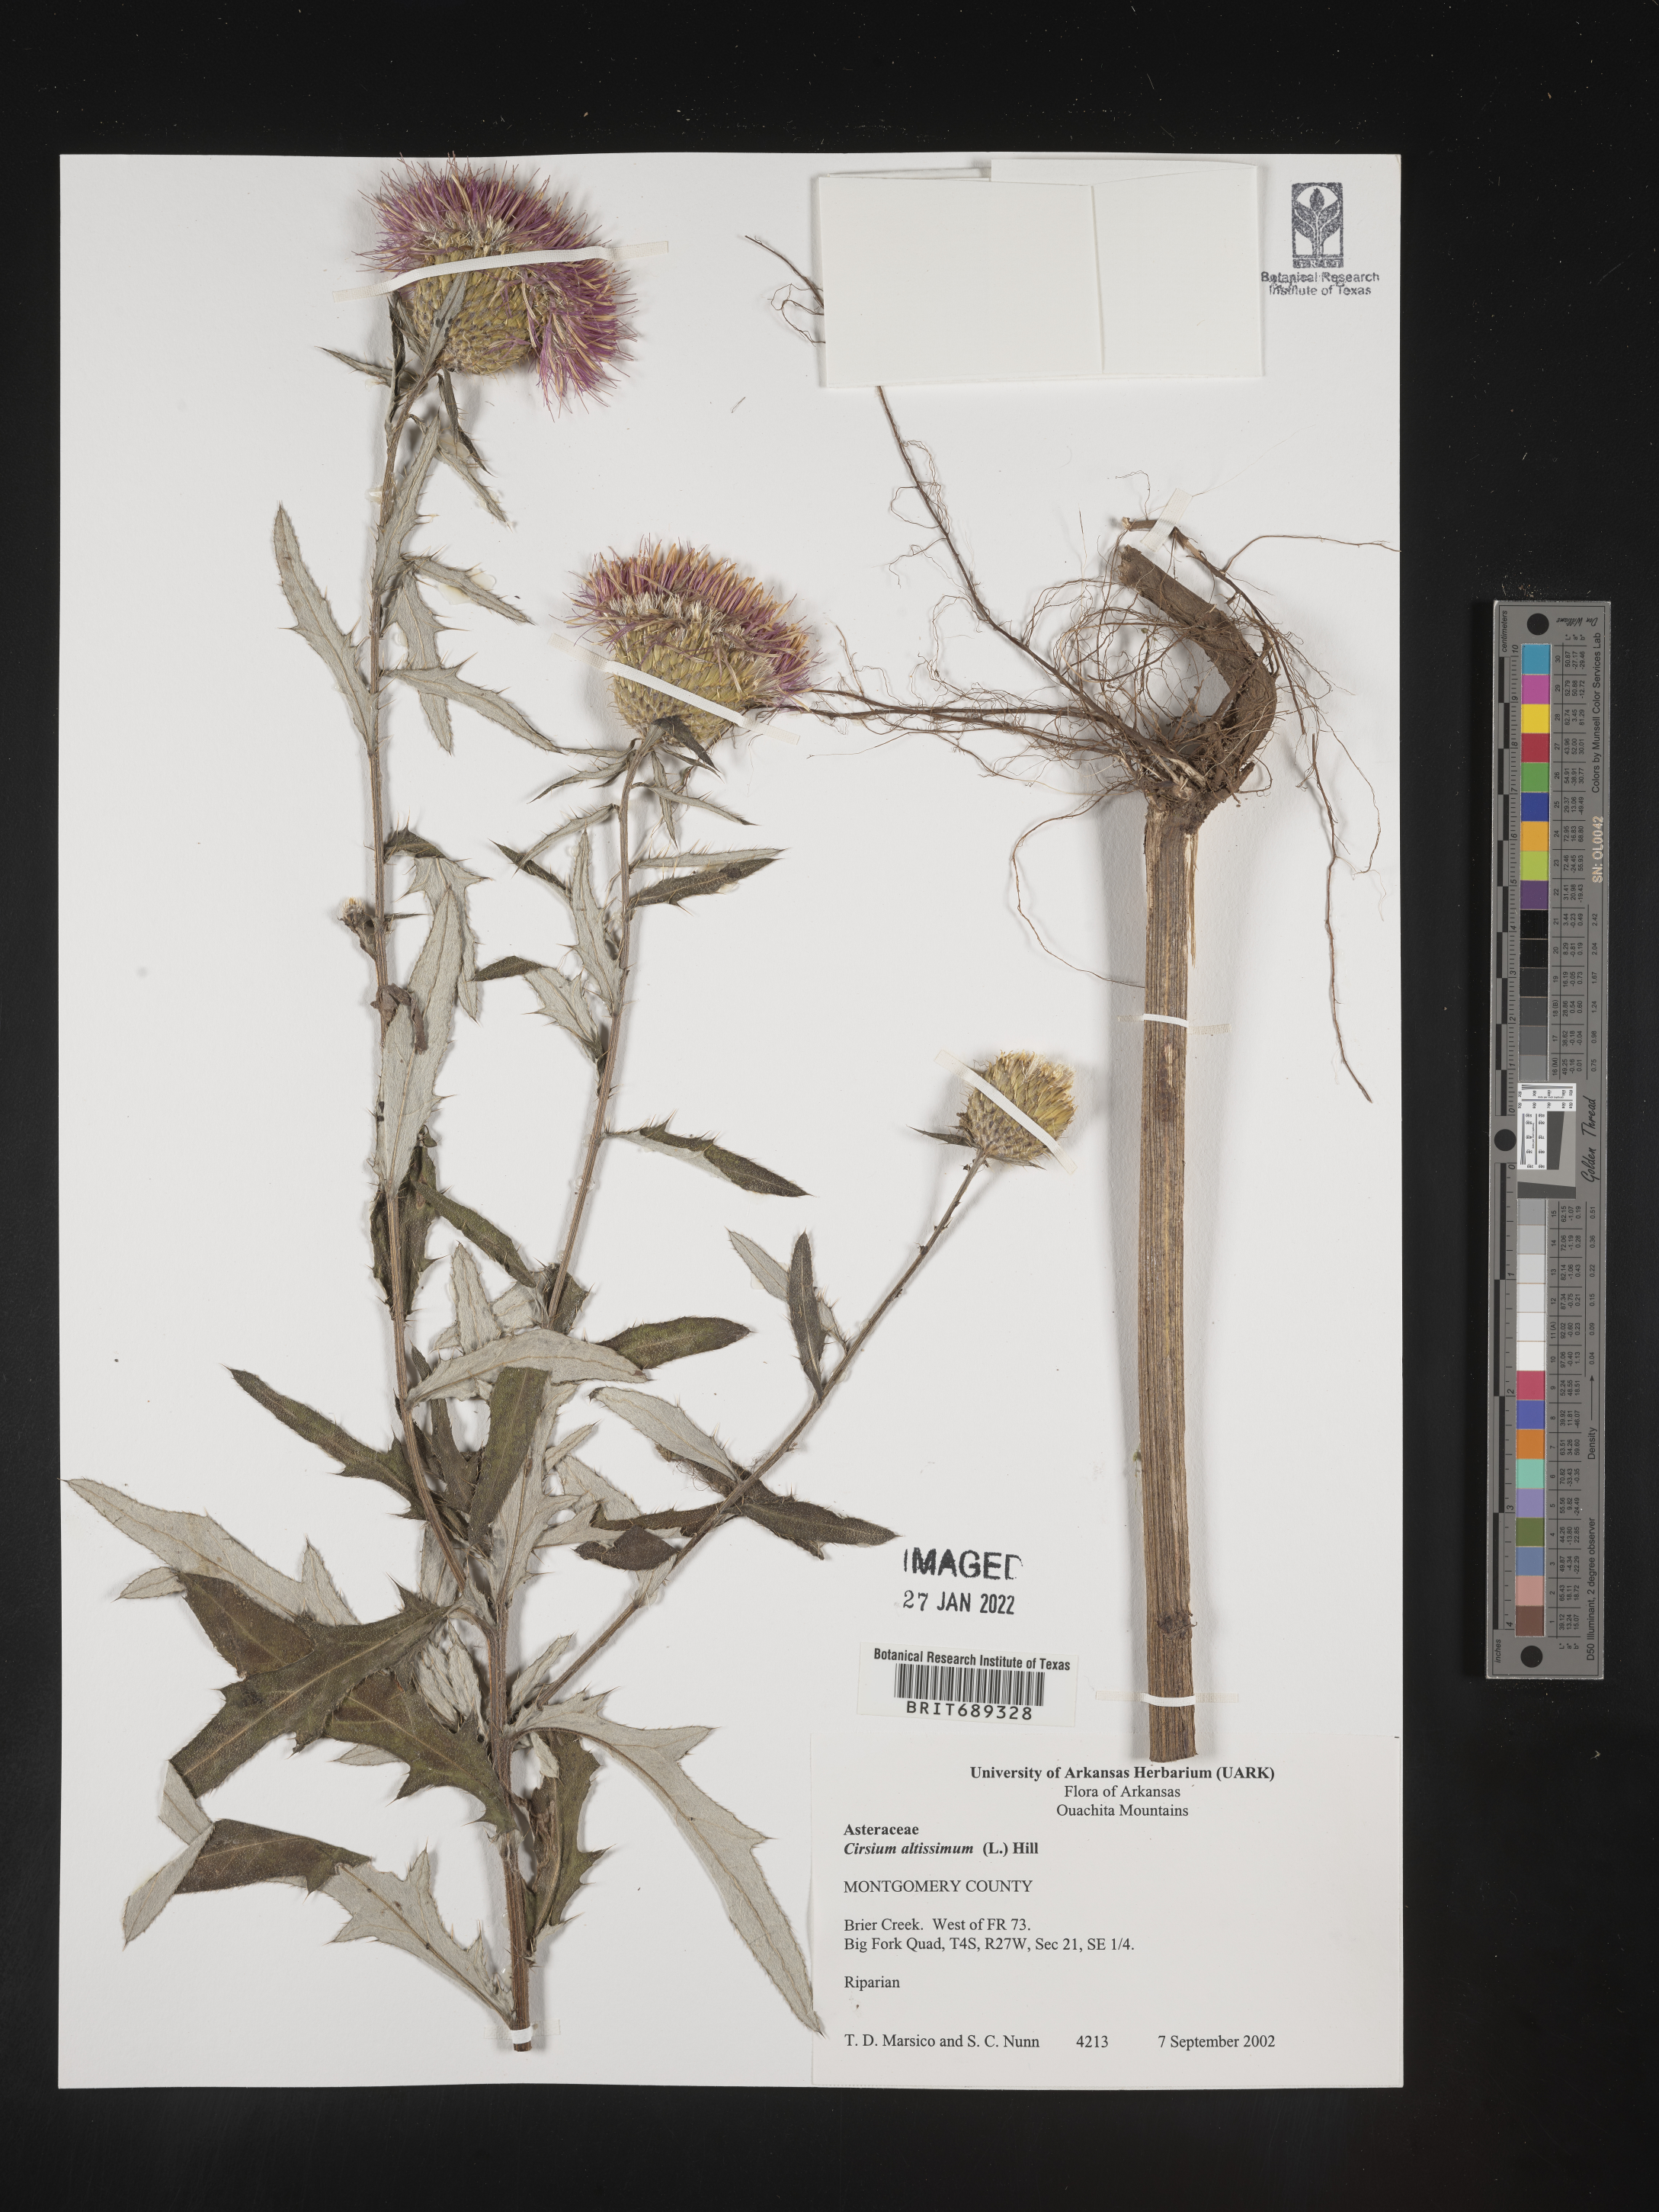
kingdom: Plantae
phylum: Tracheophyta
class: Magnoliopsida
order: Asterales
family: Asteraceae
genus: Cirsium
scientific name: Cirsium altissimum
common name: Roadside thistle
